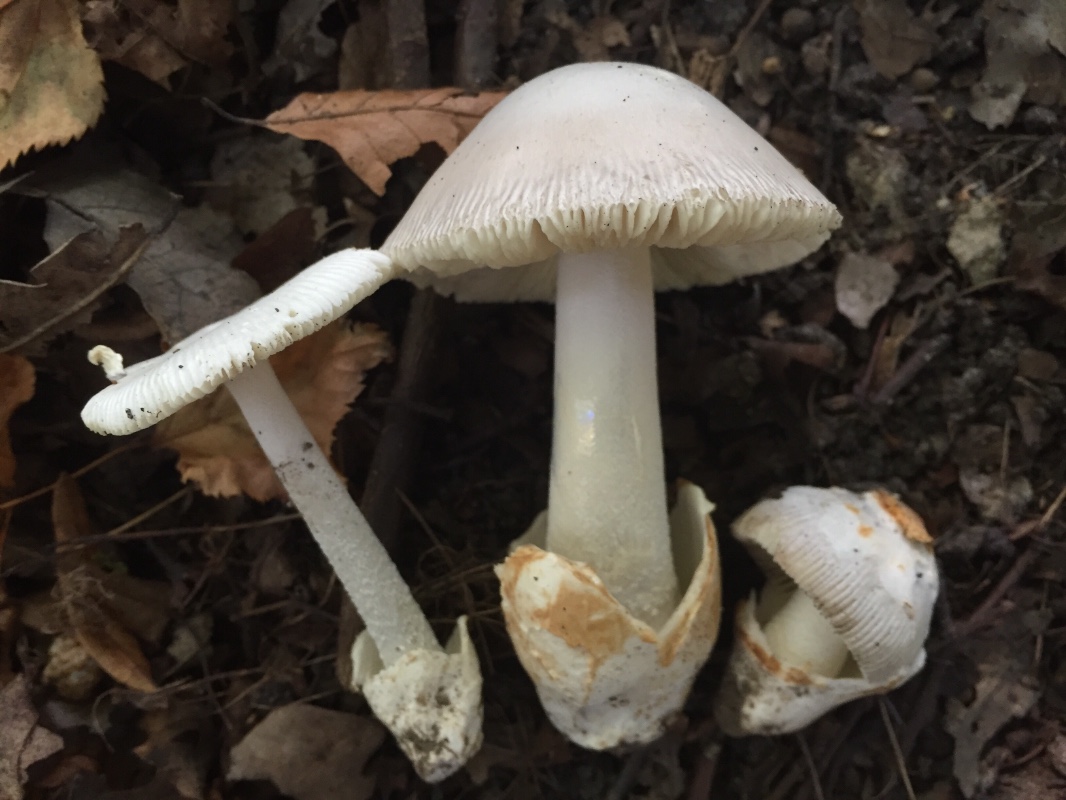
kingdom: Fungi
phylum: Basidiomycota
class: Agaricomycetes
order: Agaricales
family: Amanitaceae
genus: Amanita
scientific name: Amanita argentea
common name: sølvgrå kam-fluesvamp
